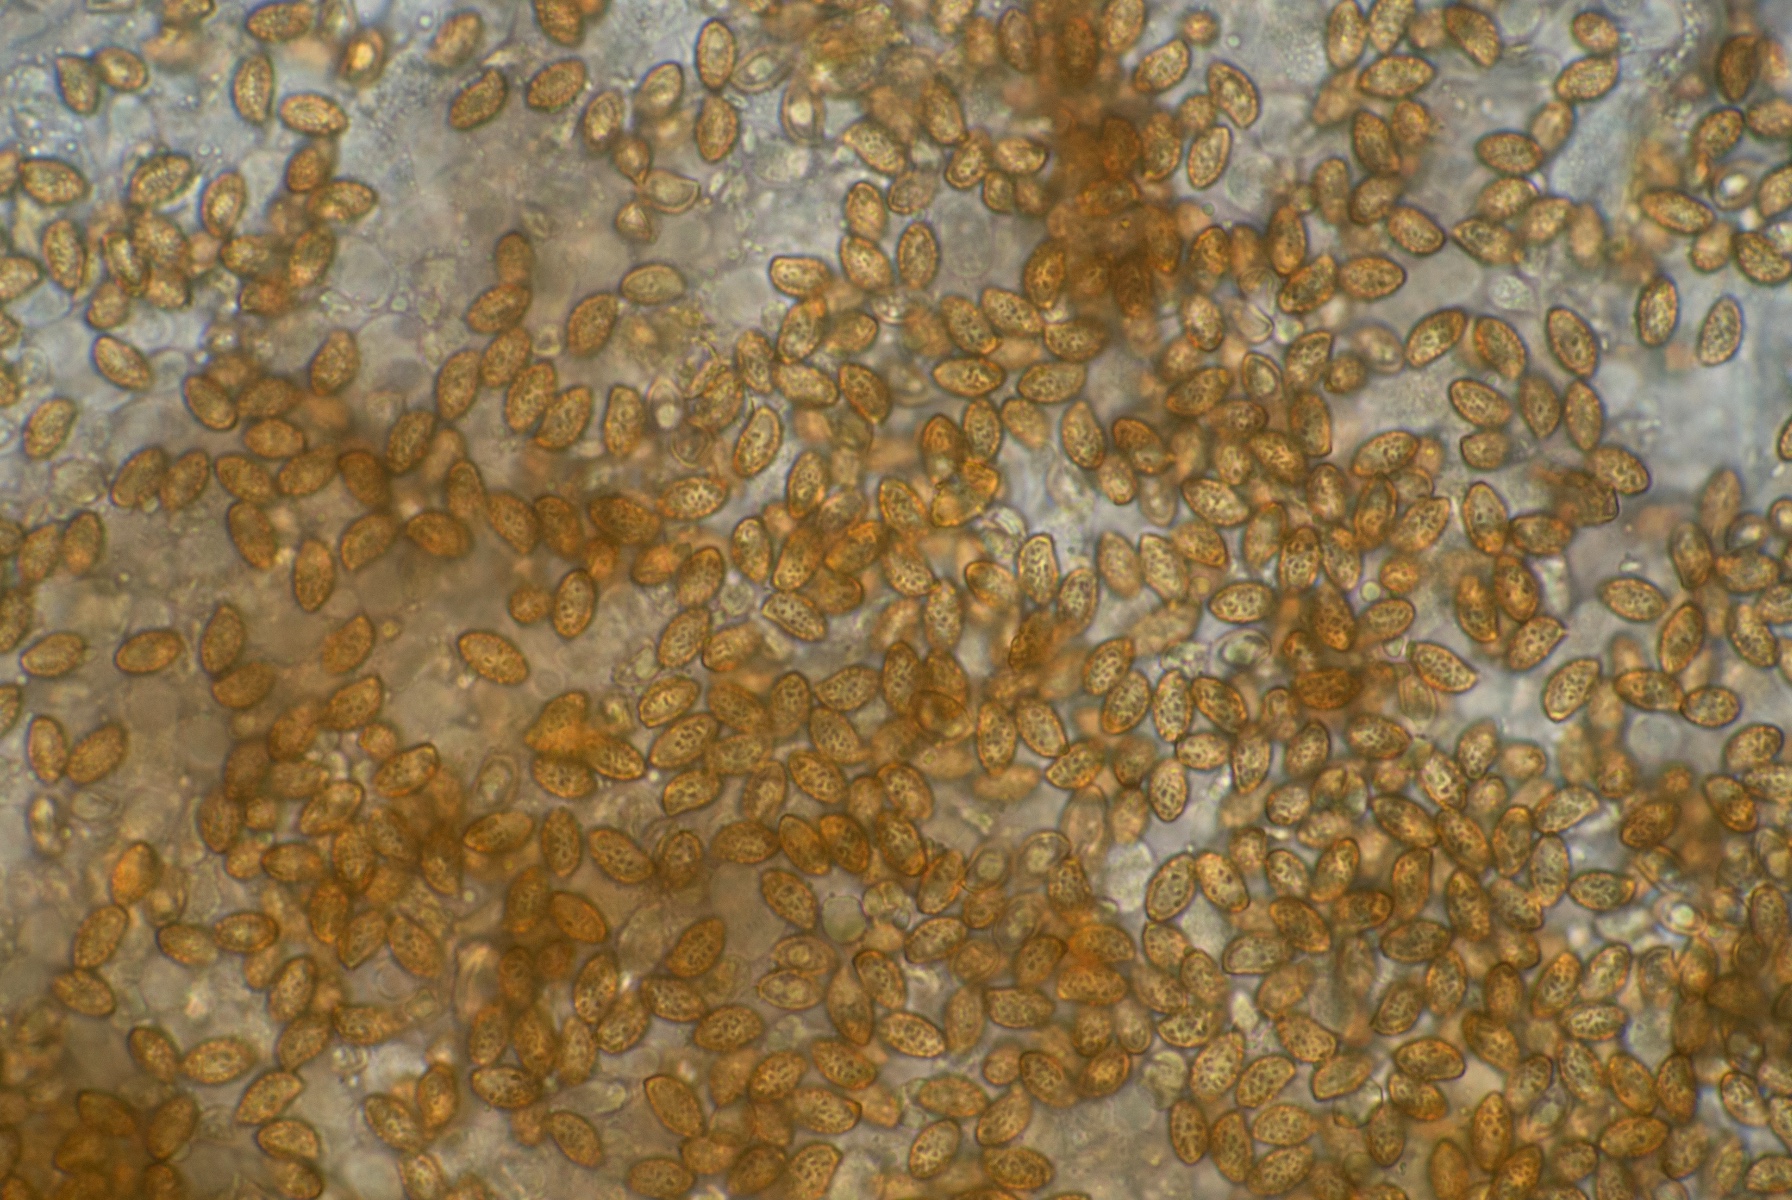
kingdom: Fungi
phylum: Basidiomycota
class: Agaricomycetes
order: Agaricales
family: Hymenogastraceae
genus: Gymnopilus
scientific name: Gymnopilus odini
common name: kul-flammehat
